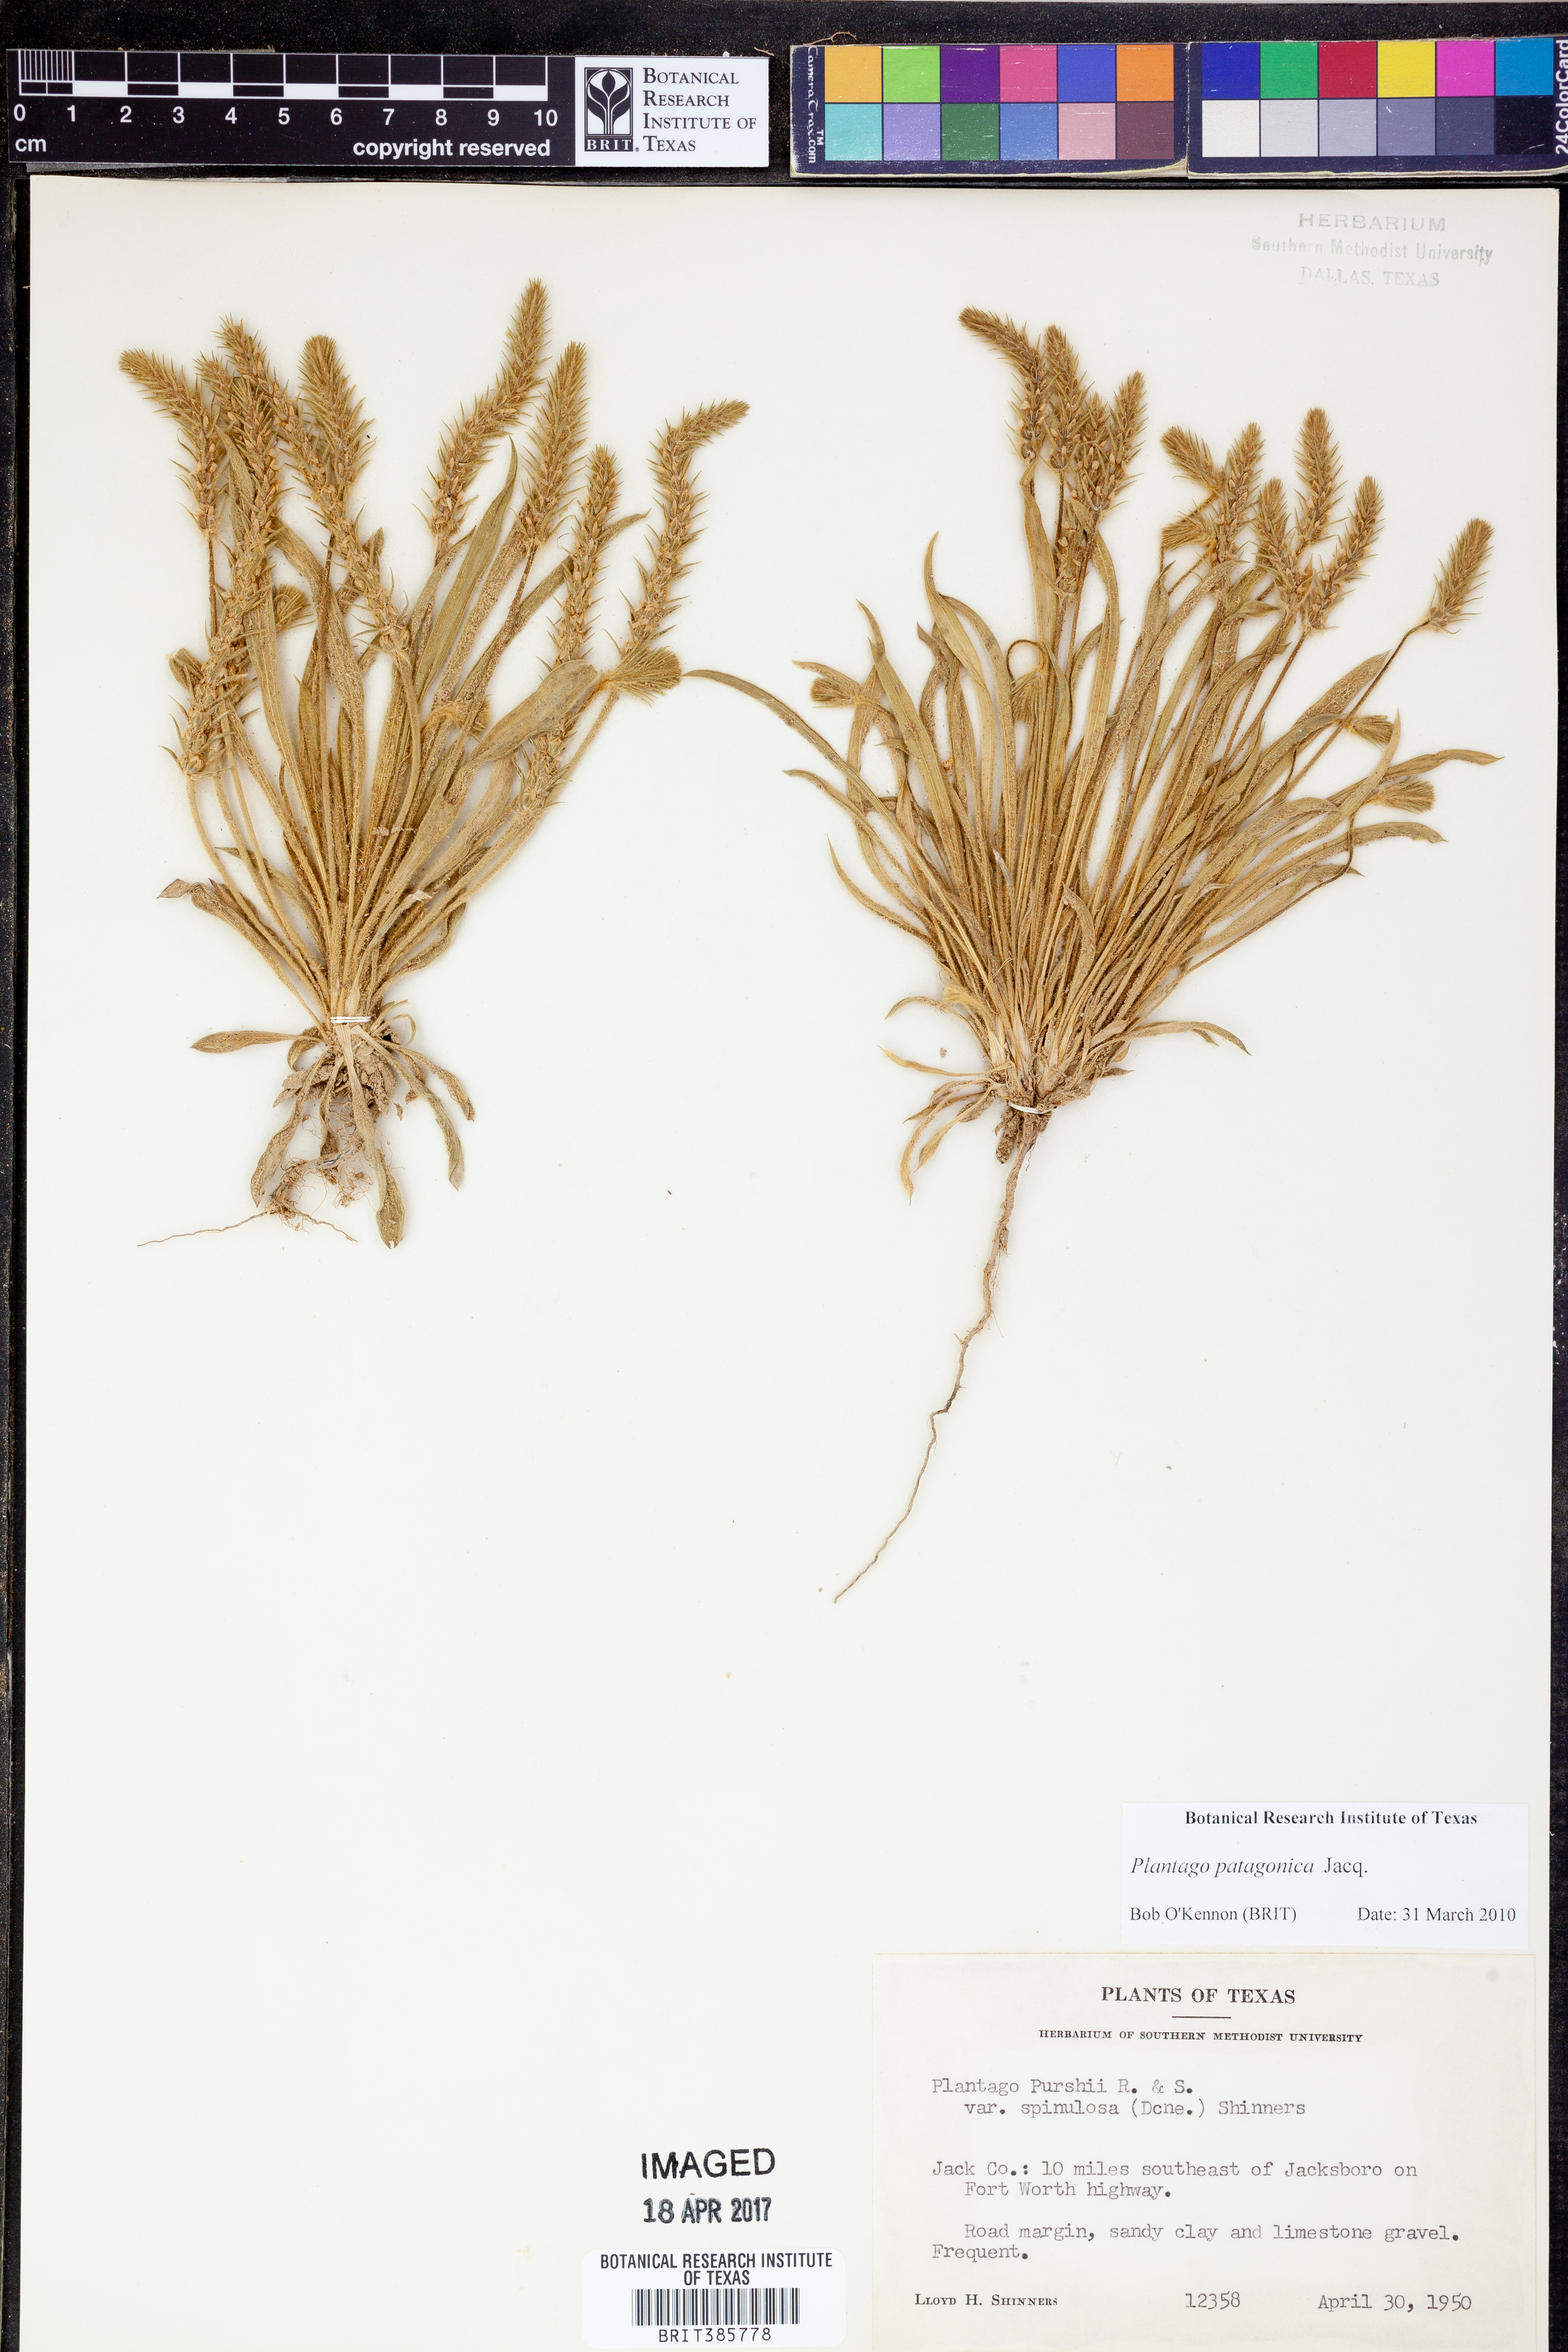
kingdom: Plantae
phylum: Tracheophyta
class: Magnoliopsida
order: Lamiales
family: Plantaginaceae
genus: Plantago
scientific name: Plantago patagonica
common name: Patagonia indian-wheat
